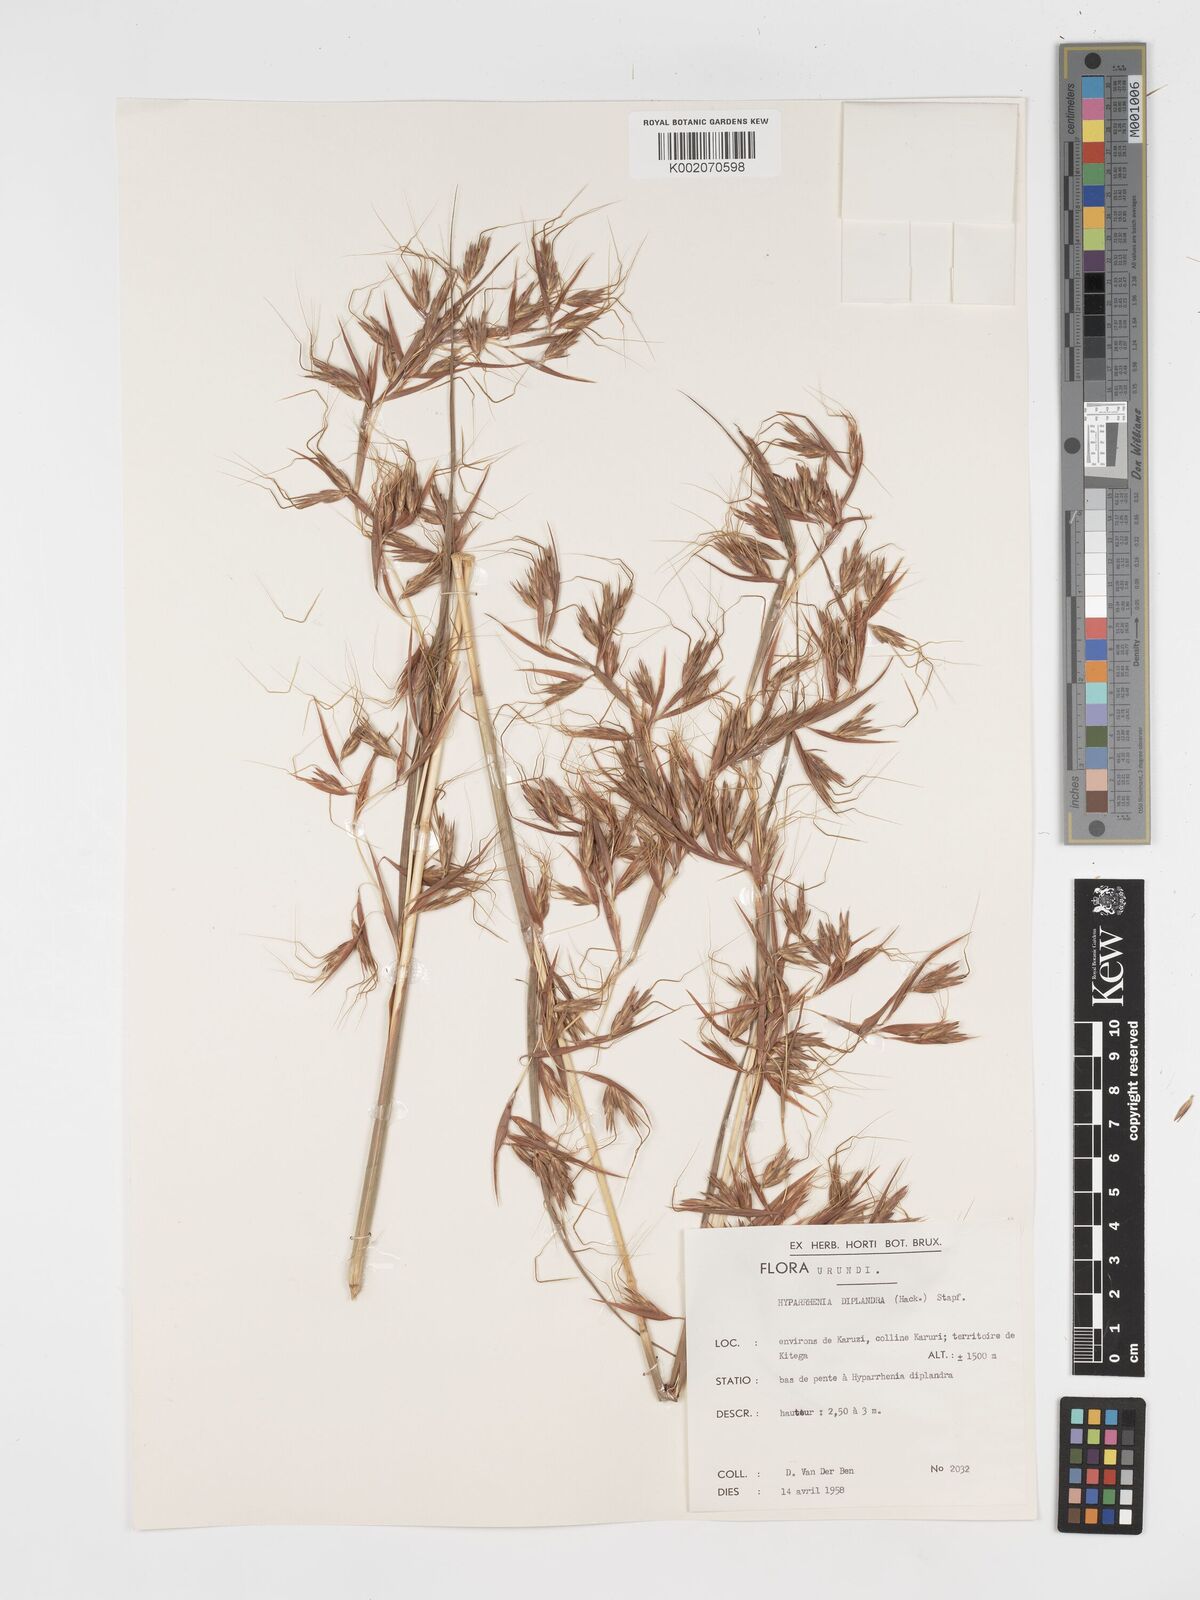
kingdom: Plantae
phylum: Tracheophyta
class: Liliopsida
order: Poales
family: Poaceae
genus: Hyparrhenia
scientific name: Hyparrhenia diplandra
